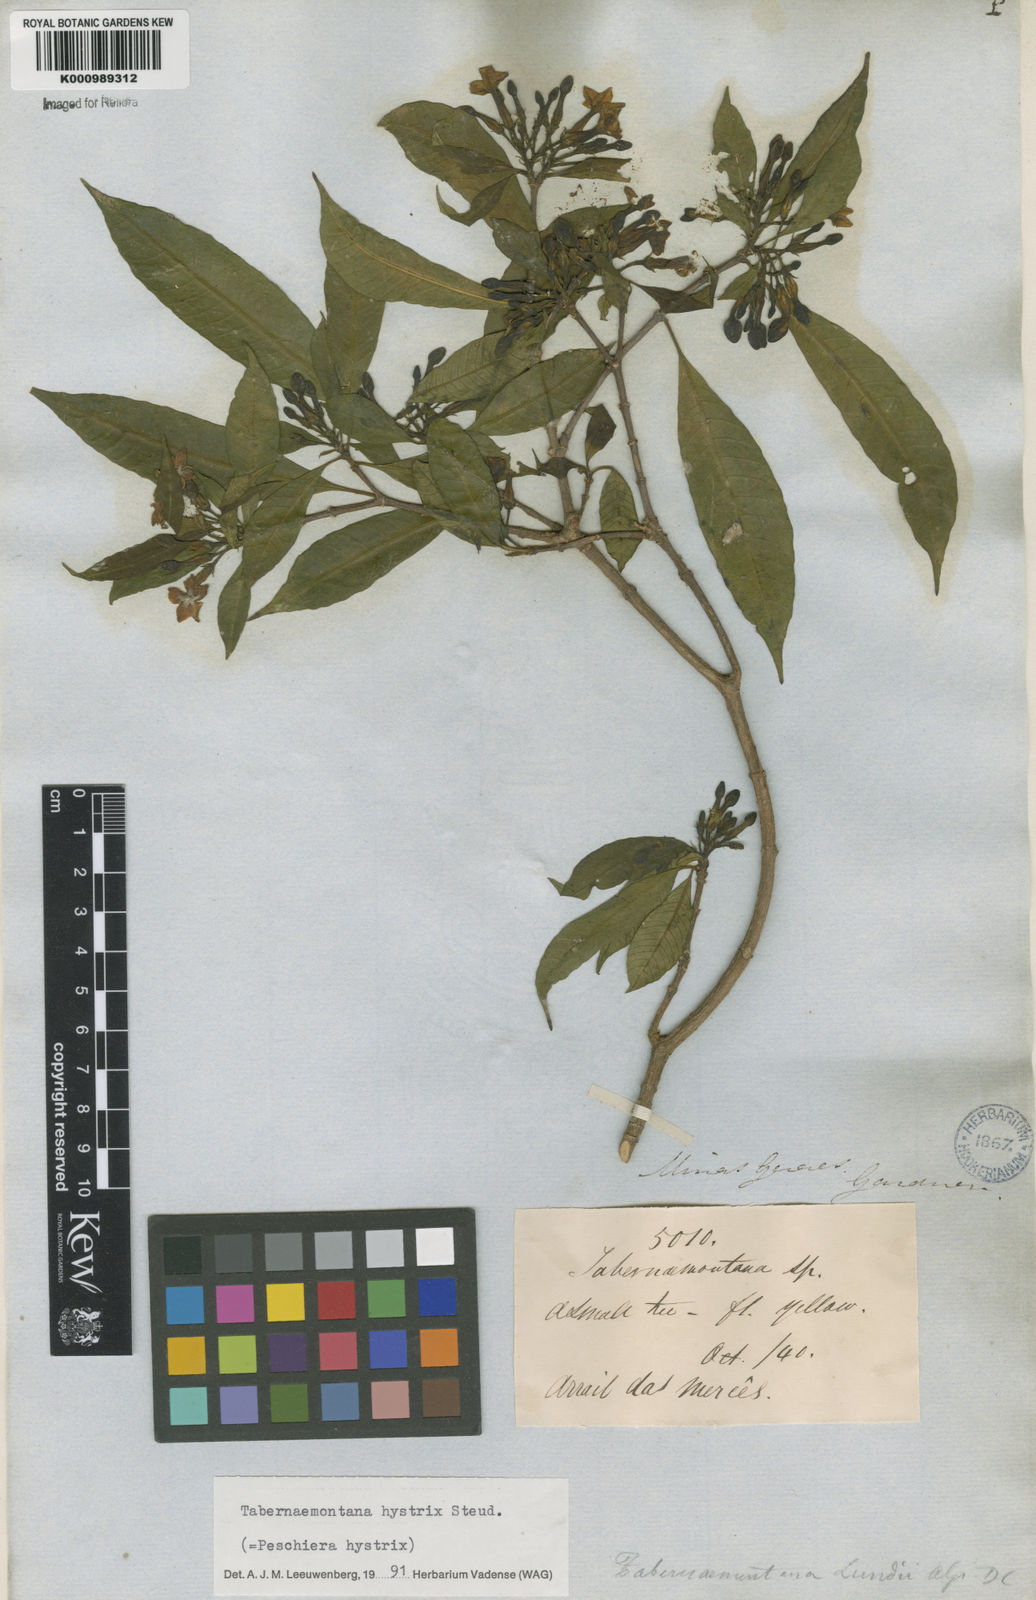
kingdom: Plantae
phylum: Tracheophyta
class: Magnoliopsida
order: Gentianales
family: Apocynaceae
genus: Tabernaemontana
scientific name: Tabernaemontana hystrix
